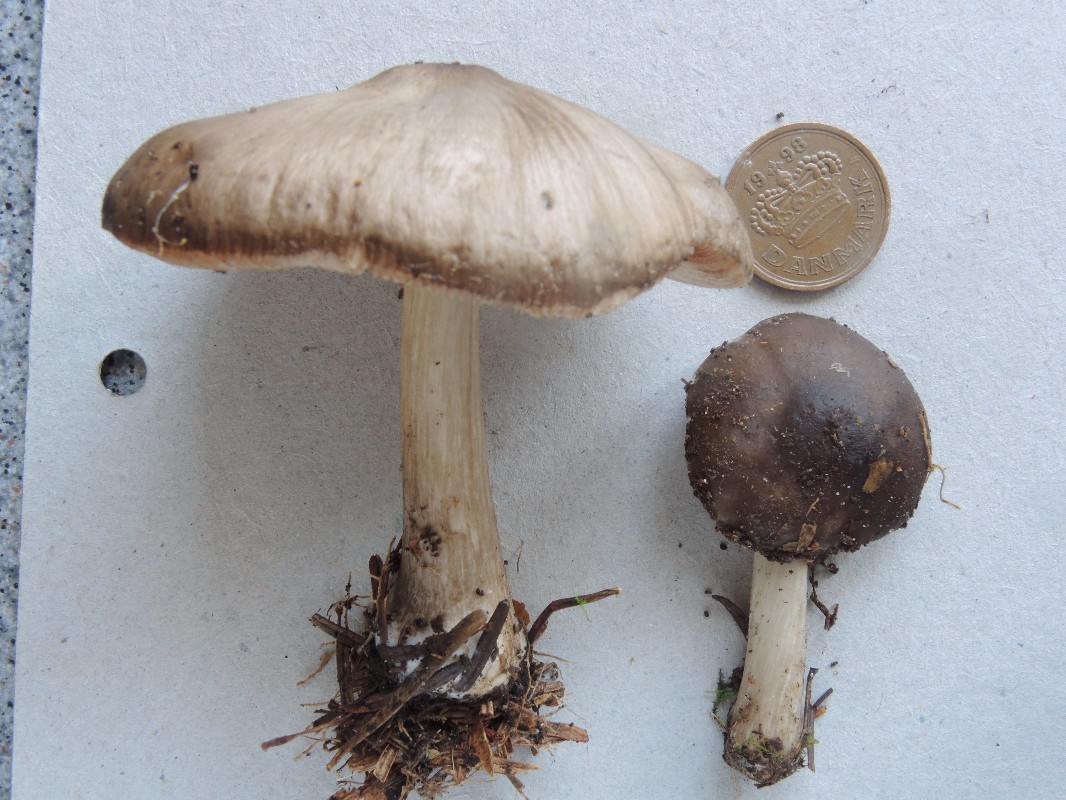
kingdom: Fungi
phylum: Basidiomycota
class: Agaricomycetes
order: Agaricales
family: Pluteaceae
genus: Pluteus
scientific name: Pluteus primus
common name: tidlig skærmhat
